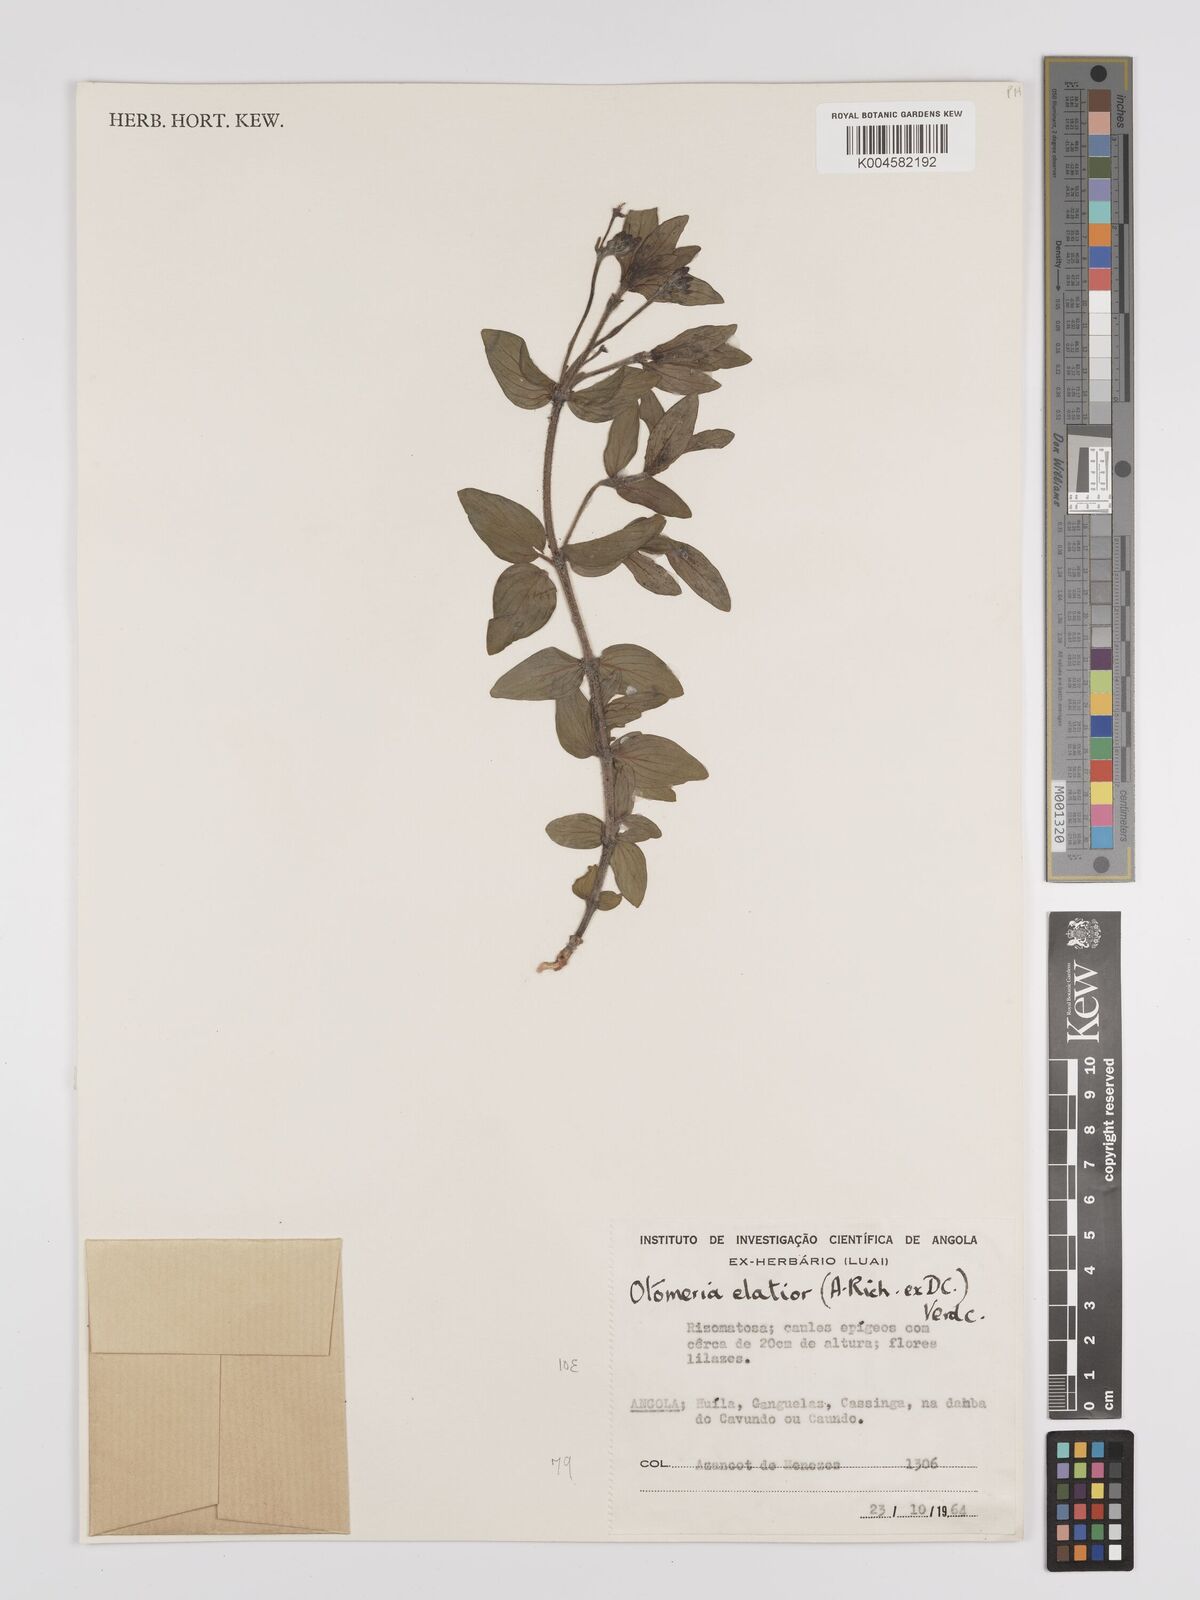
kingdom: Plantae
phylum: Tracheophyta
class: Magnoliopsida
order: Gentianales
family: Rubiaceae
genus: Otomeria
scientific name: Otomeria elatior
